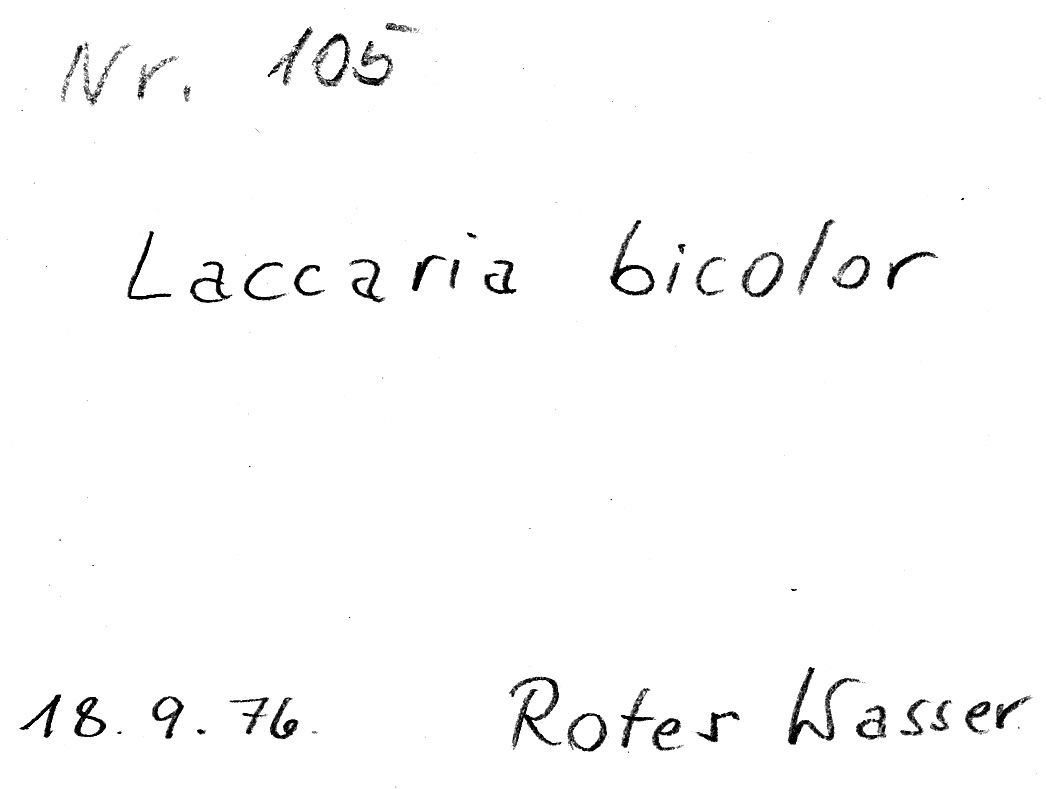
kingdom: Fungi
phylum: Basidiomycota
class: Agaricomycetes
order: Agaricales
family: Hydnangiaceae
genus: Laccaria
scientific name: Laccaria bicolor
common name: Bicoloured deceiver
